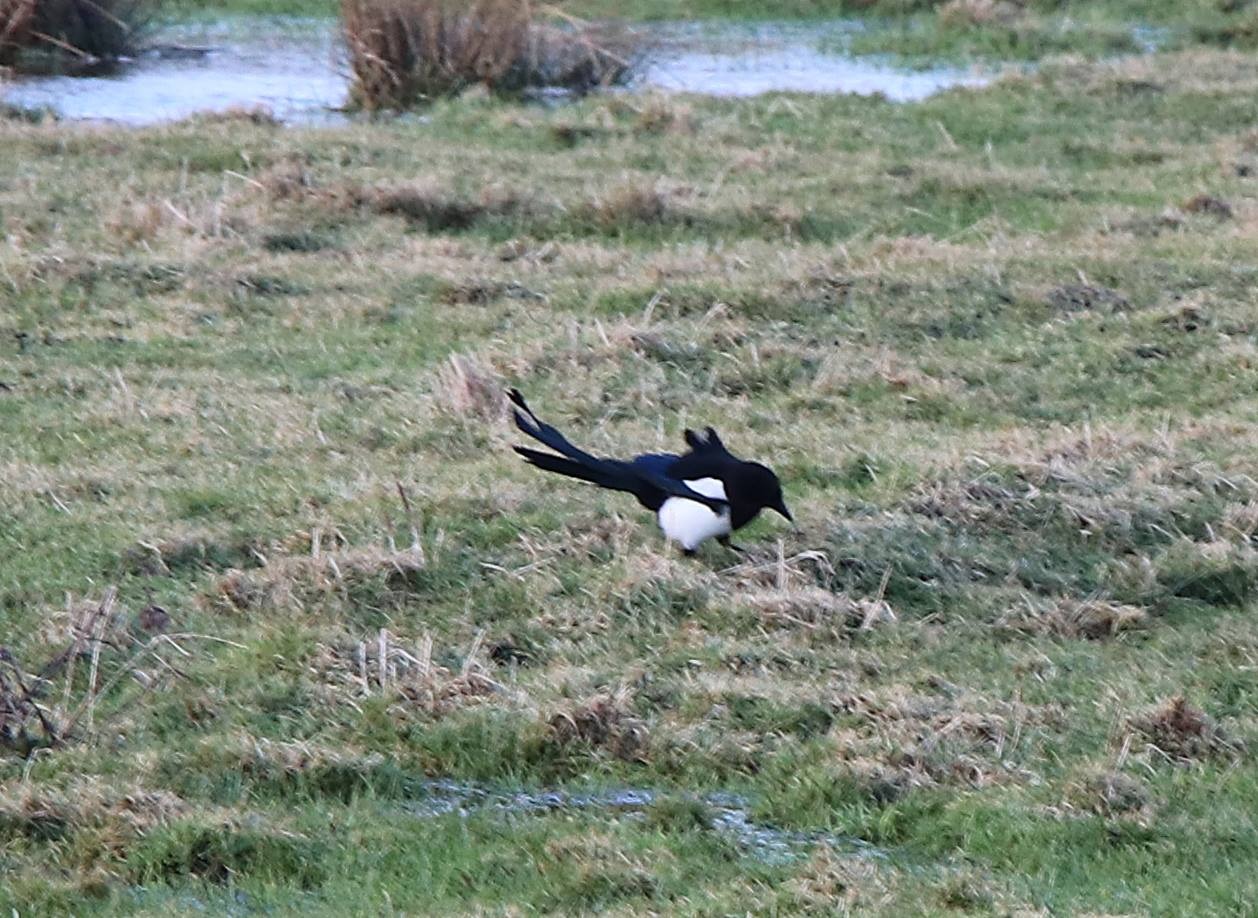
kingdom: Animalia
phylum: Chordata
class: Aves
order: Passeriformes
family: Corvidae
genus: Pica
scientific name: Pica pica
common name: Husskade
